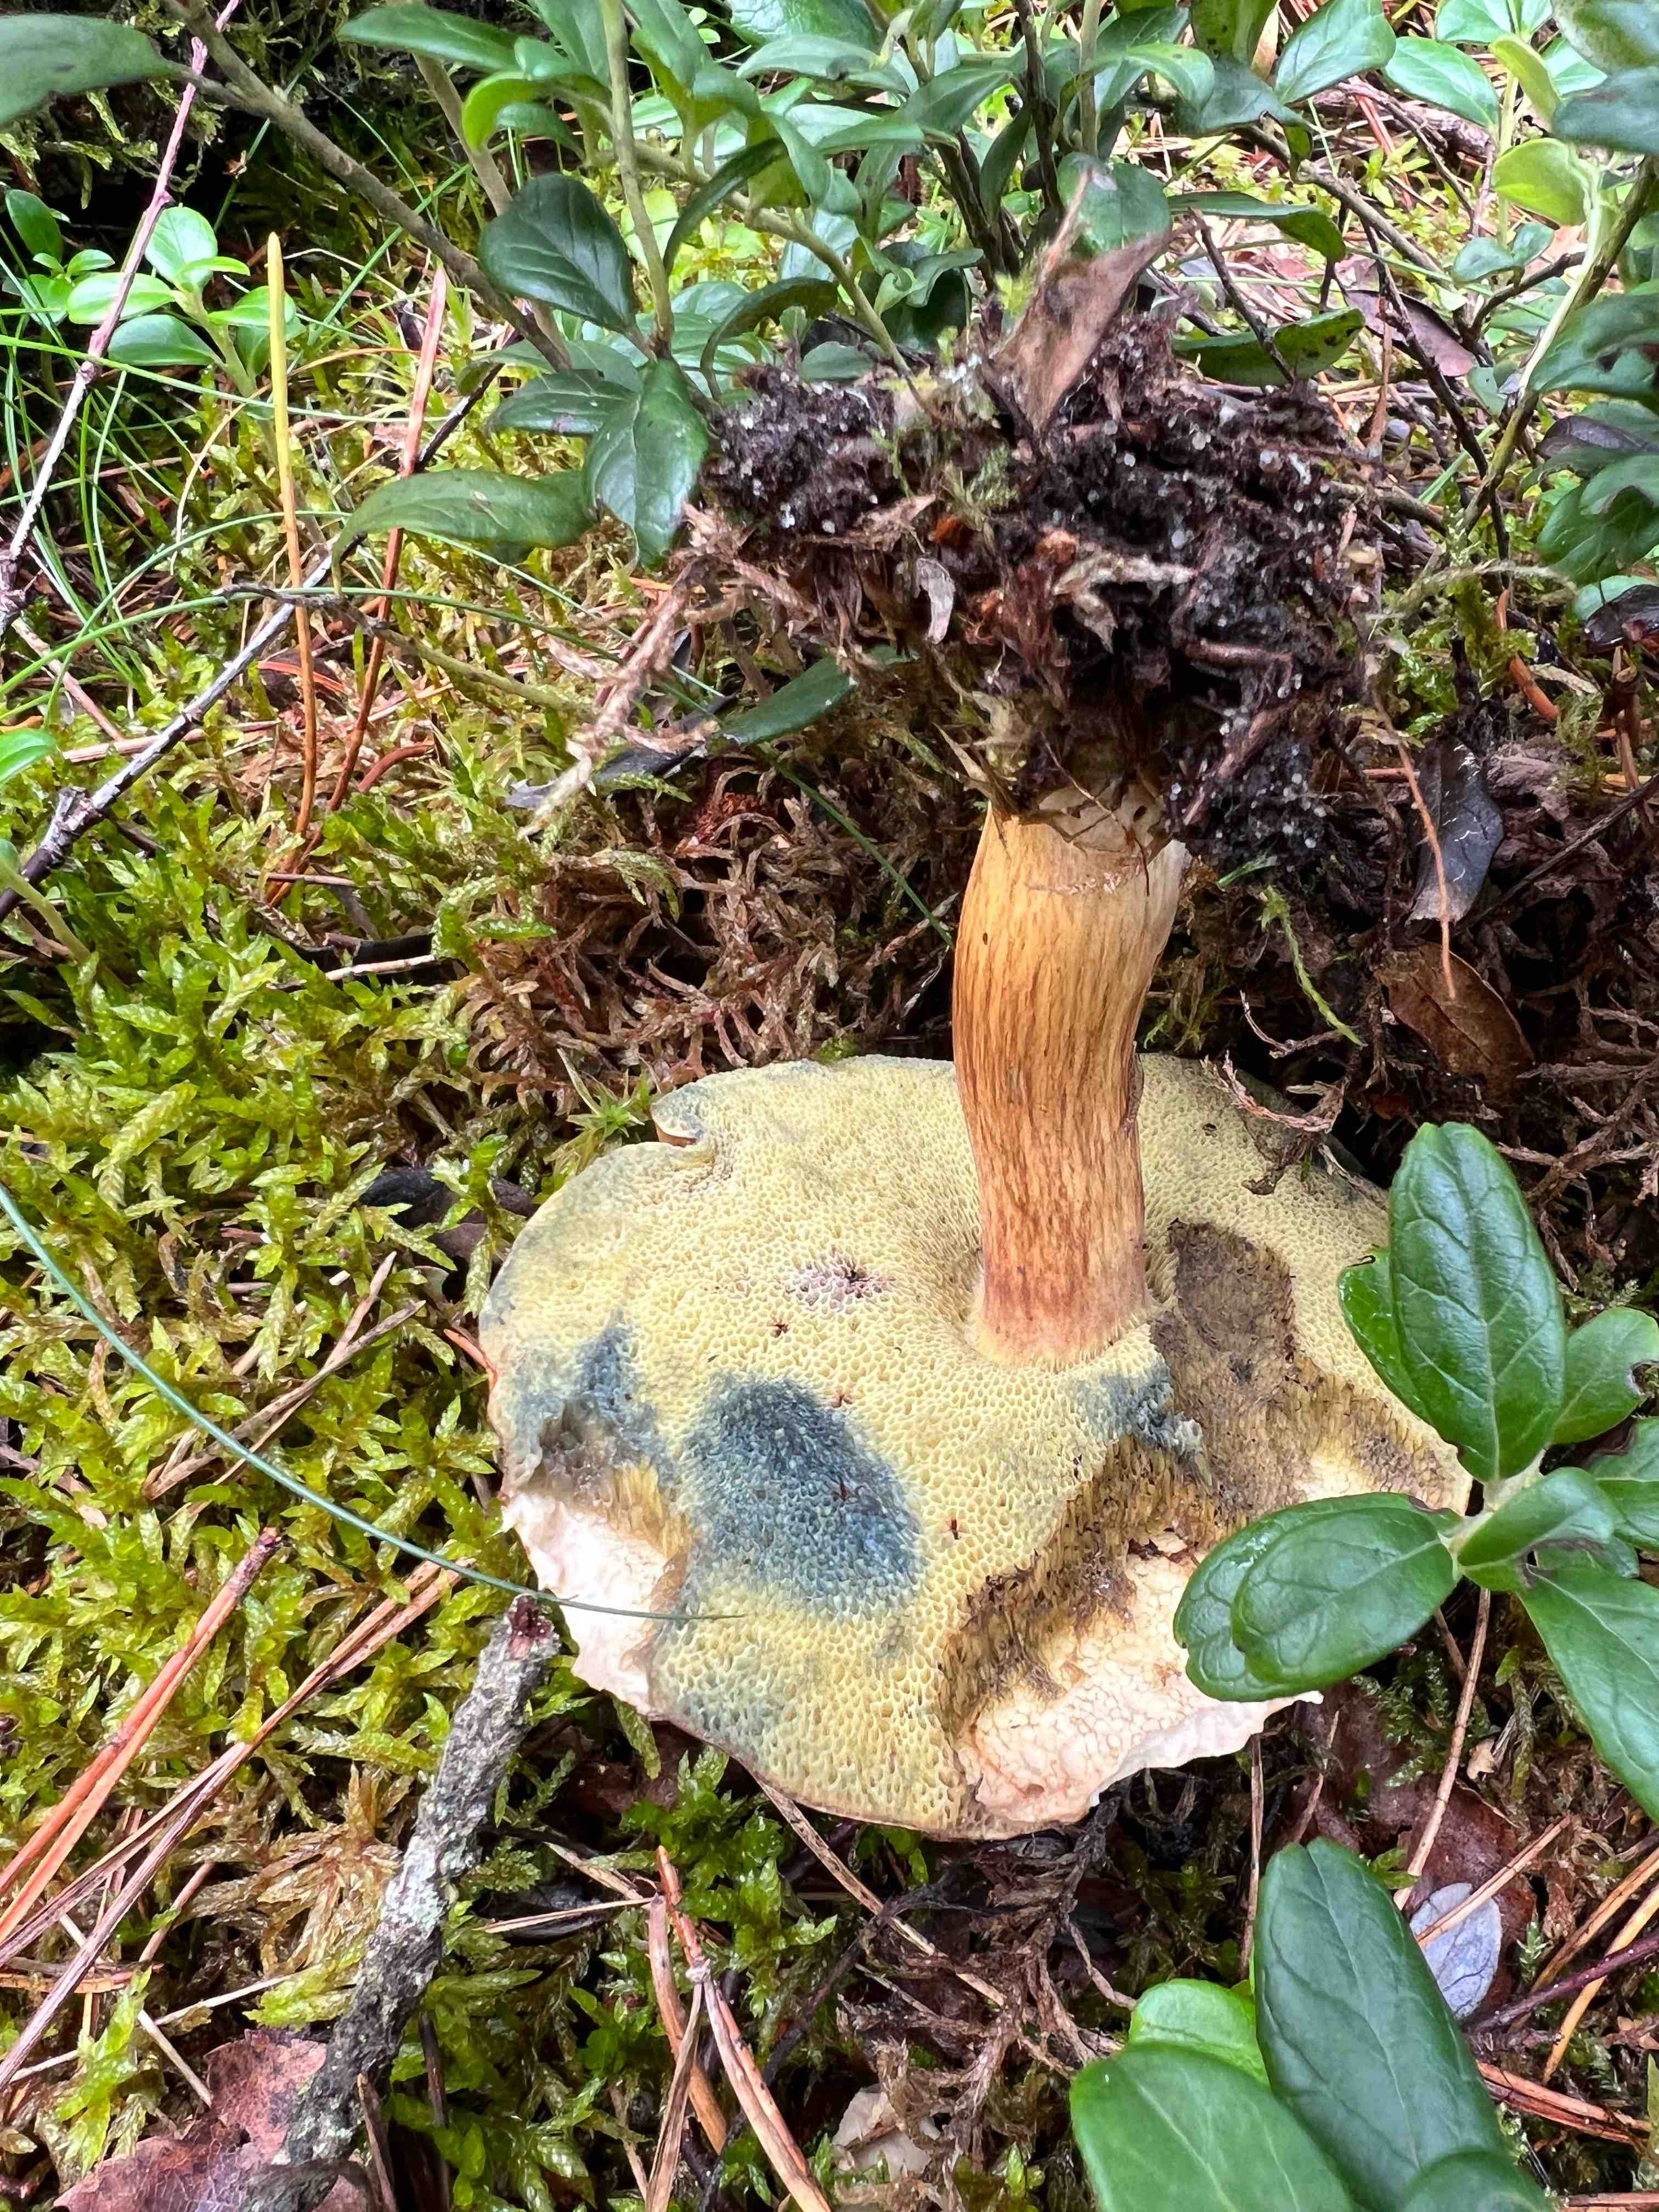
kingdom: Fungi
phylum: Basidiomycota
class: Agaricomycetes
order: Boletales
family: Boletaceae
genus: Imleria
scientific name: Imleria badia
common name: brunstokket rørhat
